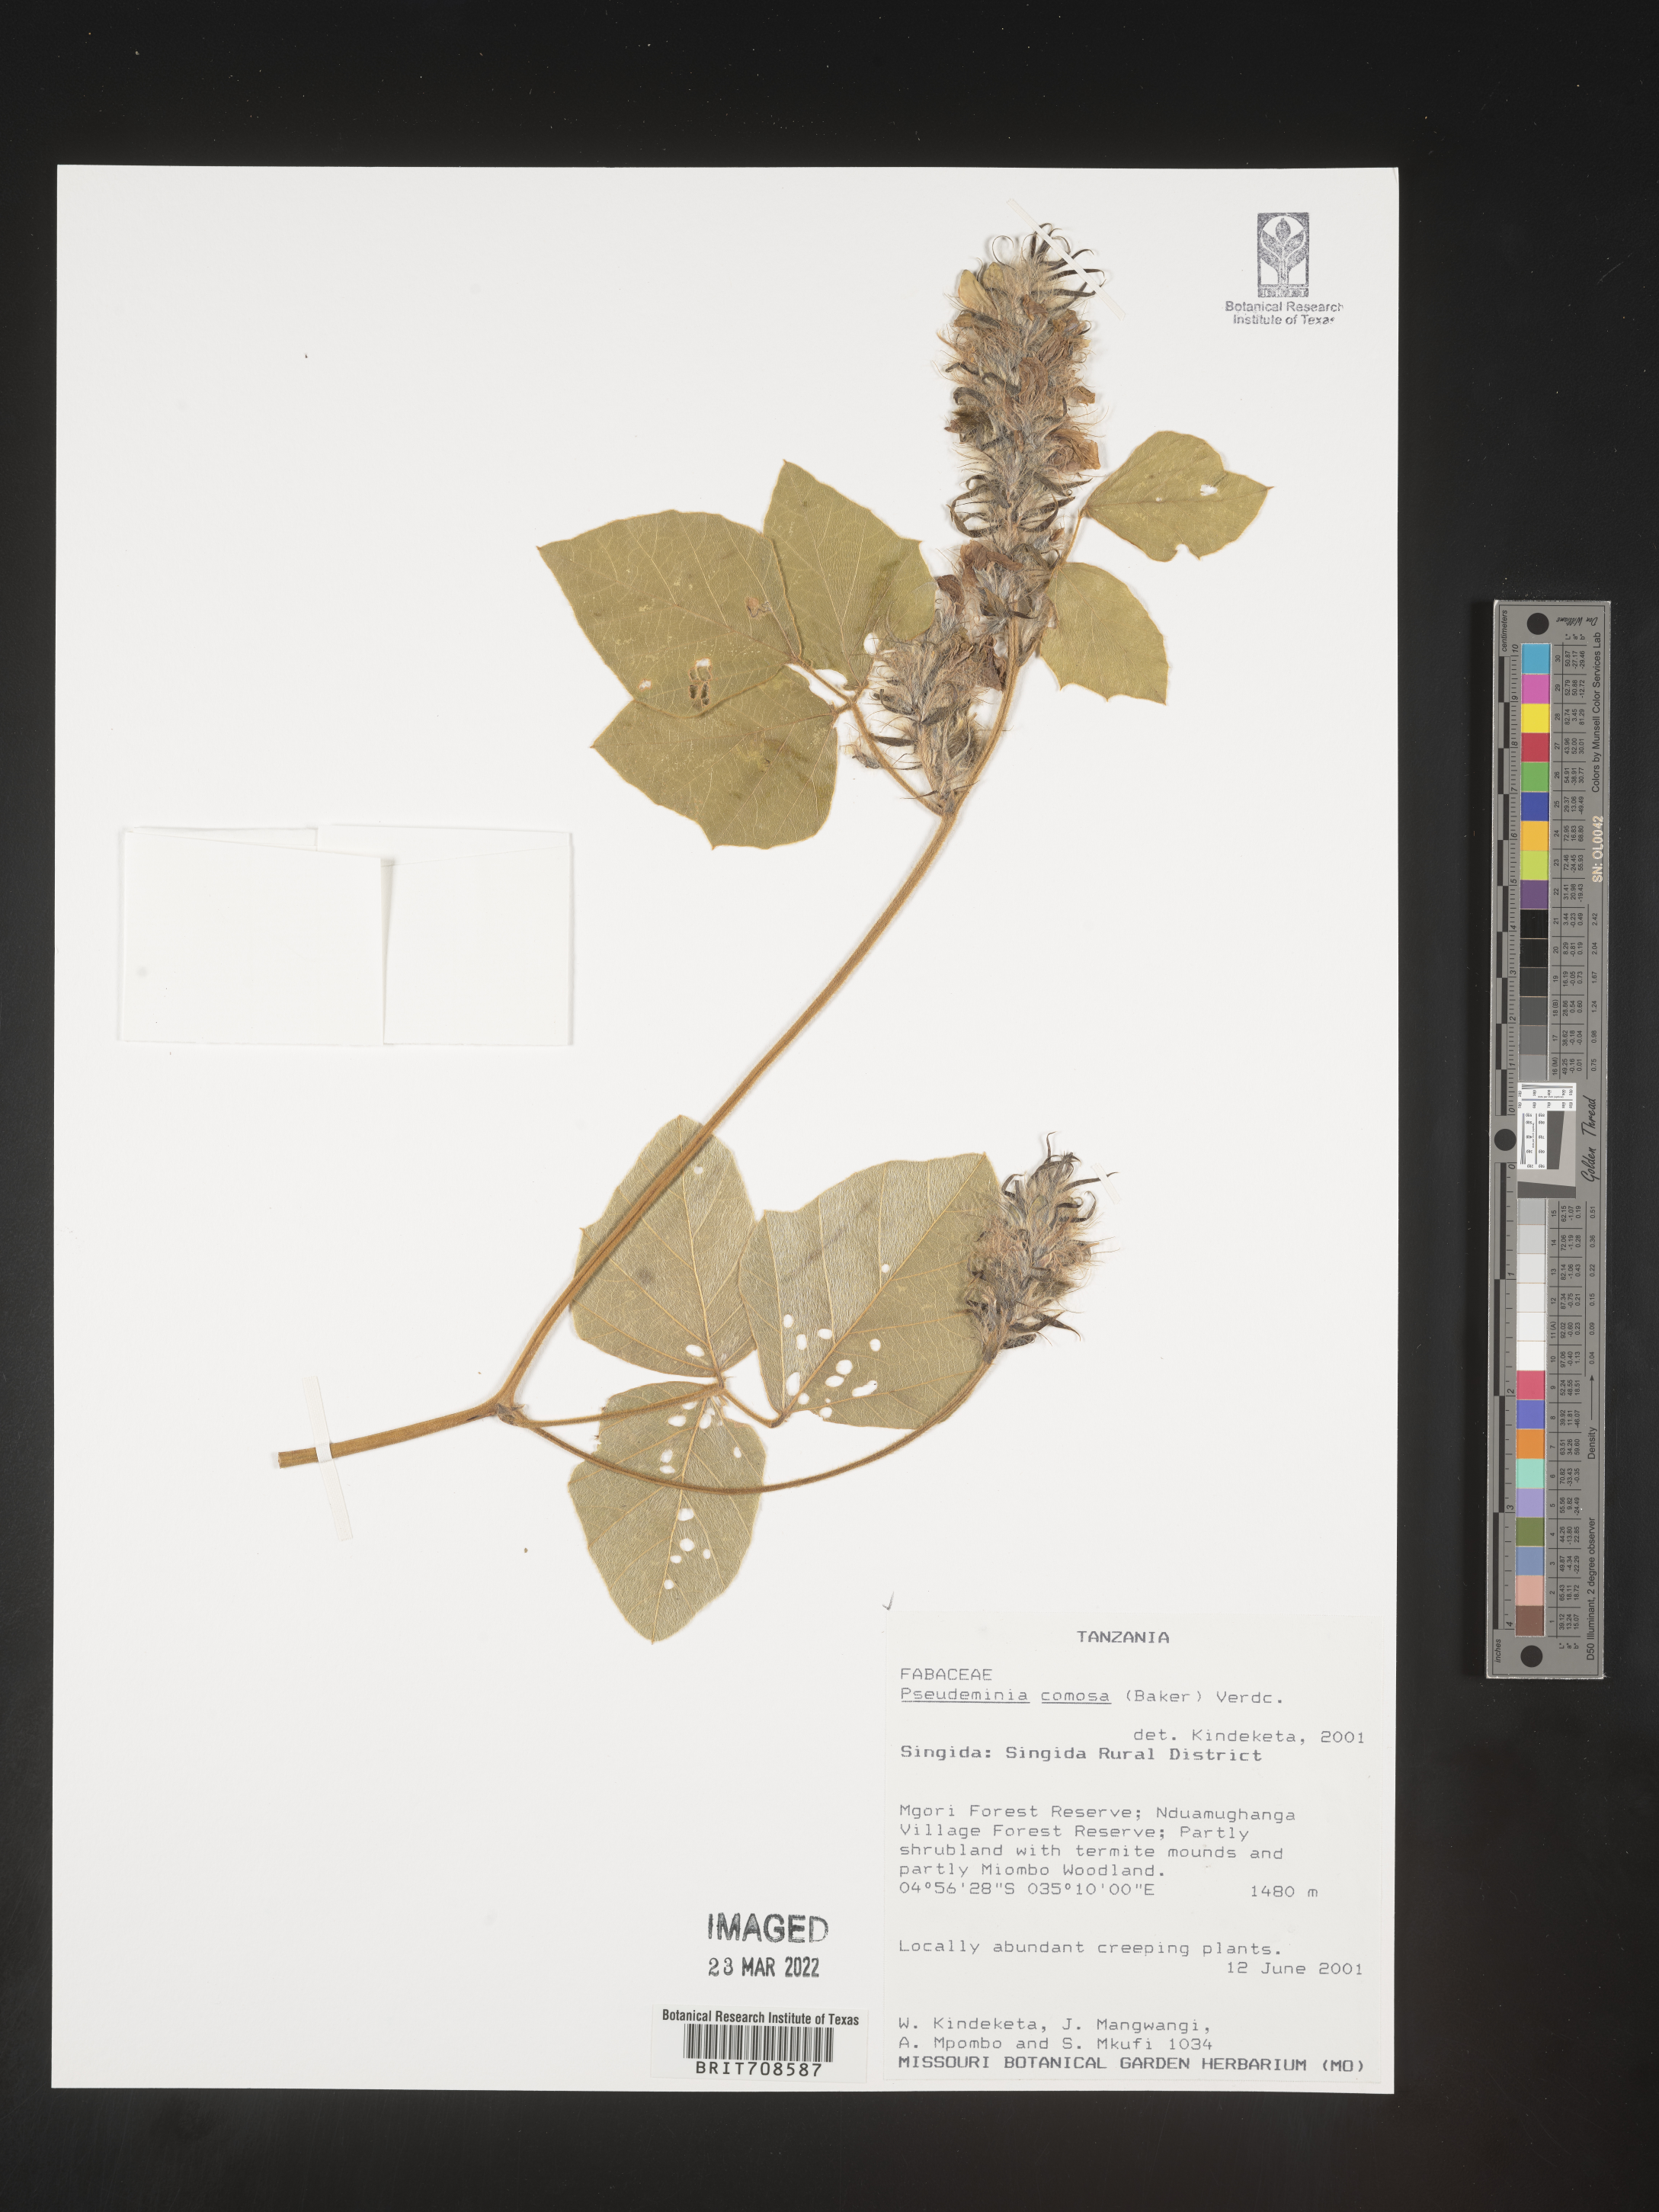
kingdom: Plantae
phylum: Tracheophyta
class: Magnoliopsida
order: Fabales
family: Fabaceae
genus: Pseudeminia
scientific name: Pseudeminia
